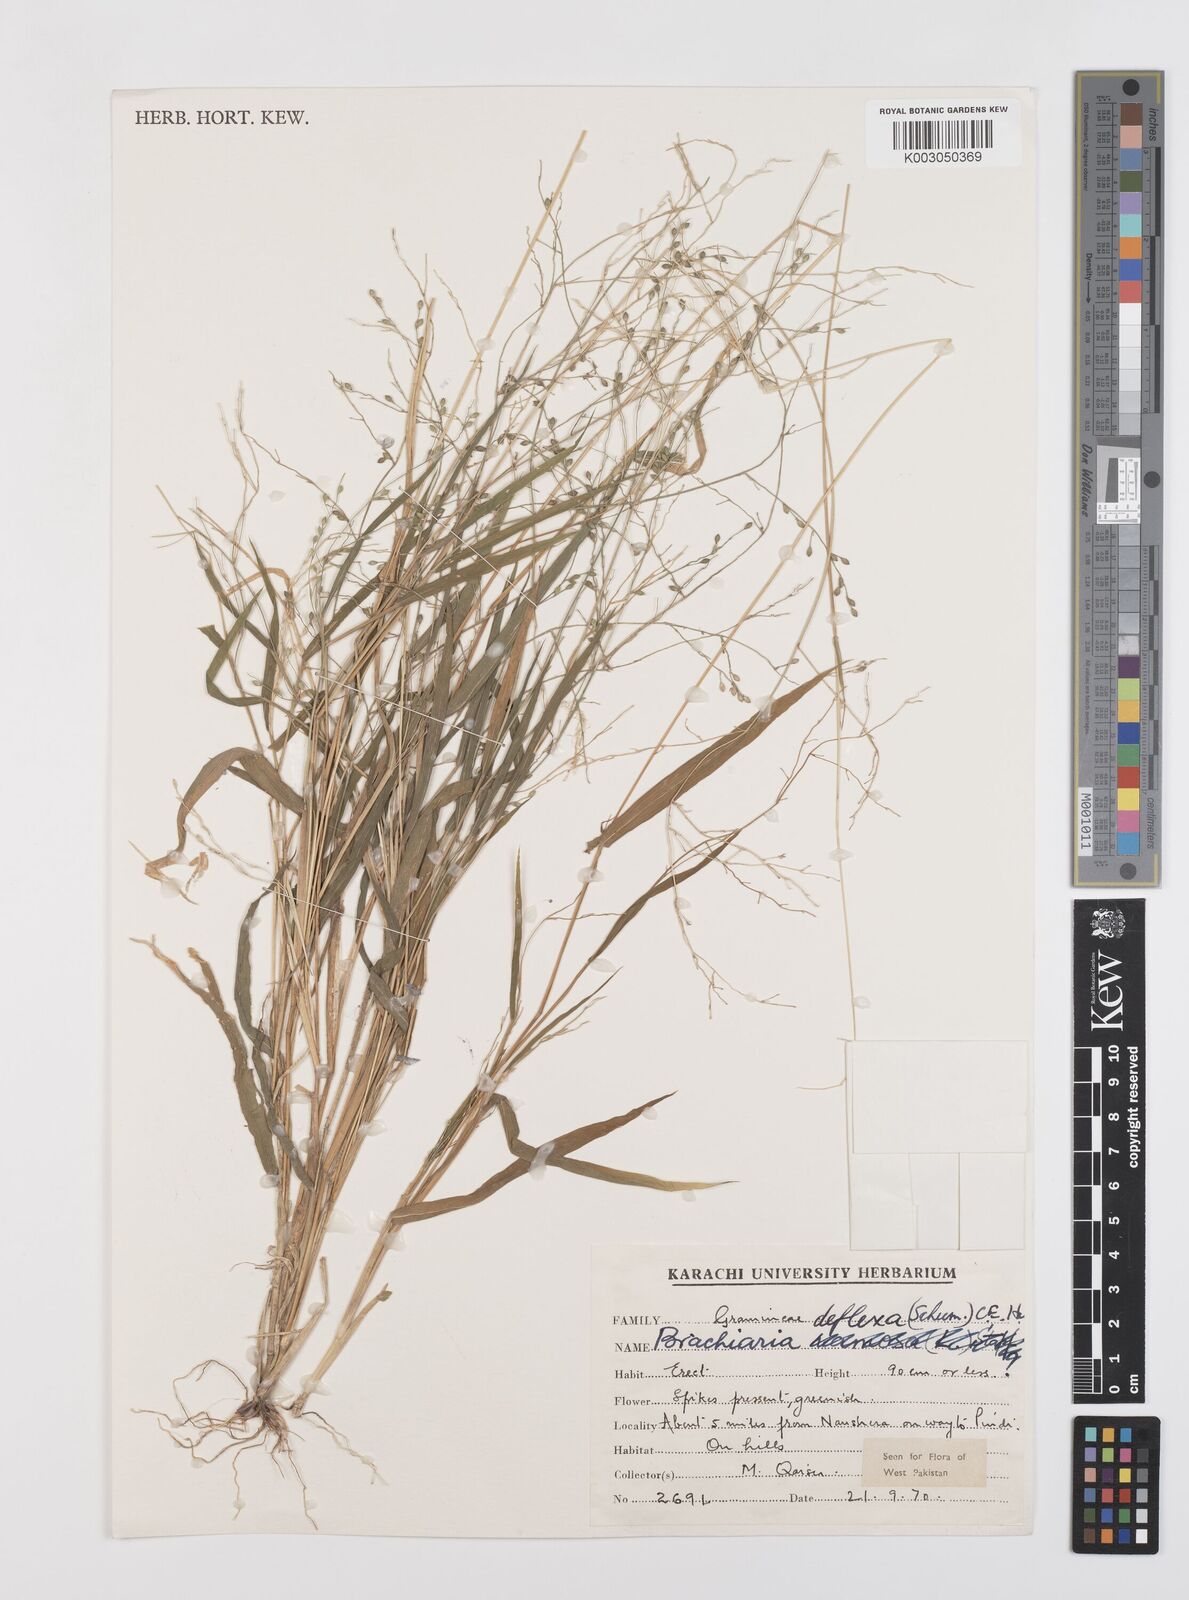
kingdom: Plantae
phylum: Tracheophyta
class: Liliopsida
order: Poales
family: Poaceae
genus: Urochloa
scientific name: Urochloa deflexa
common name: Guinea millet
